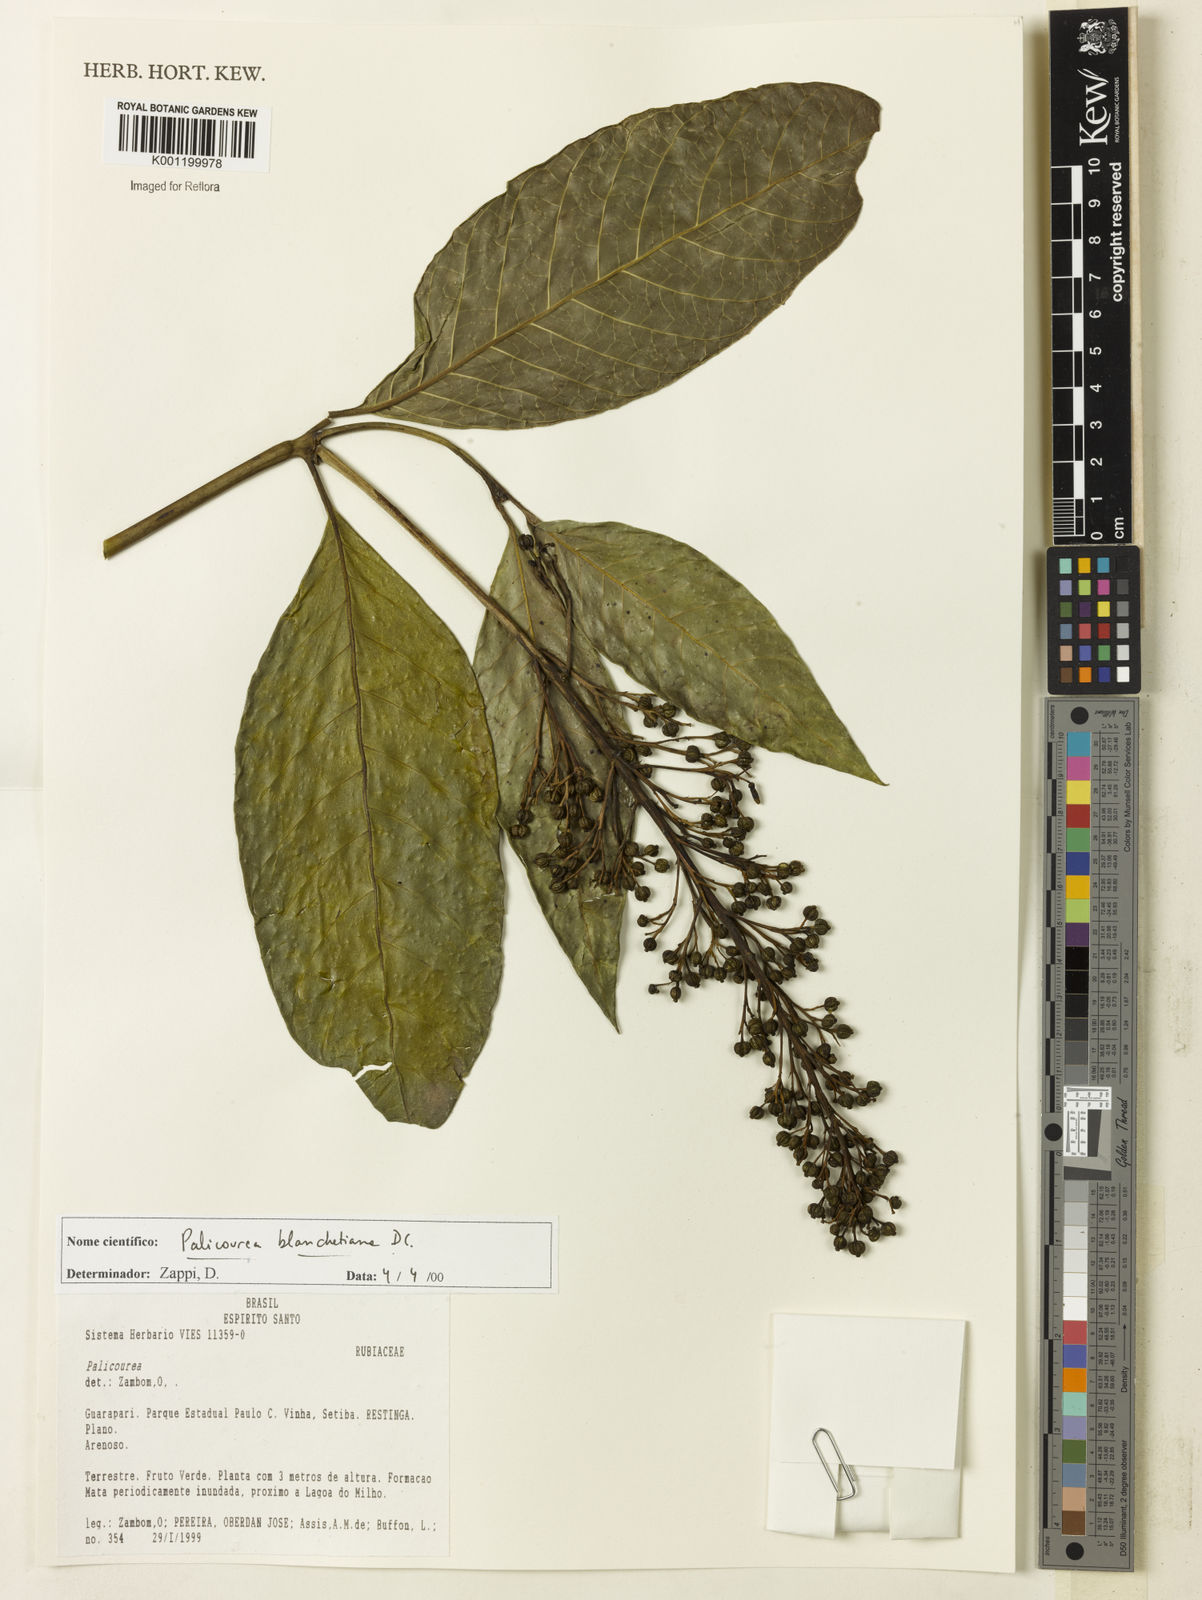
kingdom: Plantae
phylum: Tracheophyta
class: Magnoliopsida
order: Gentianales
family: Rubiaceae
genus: Palicourea
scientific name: Palicourea blanchetiana
